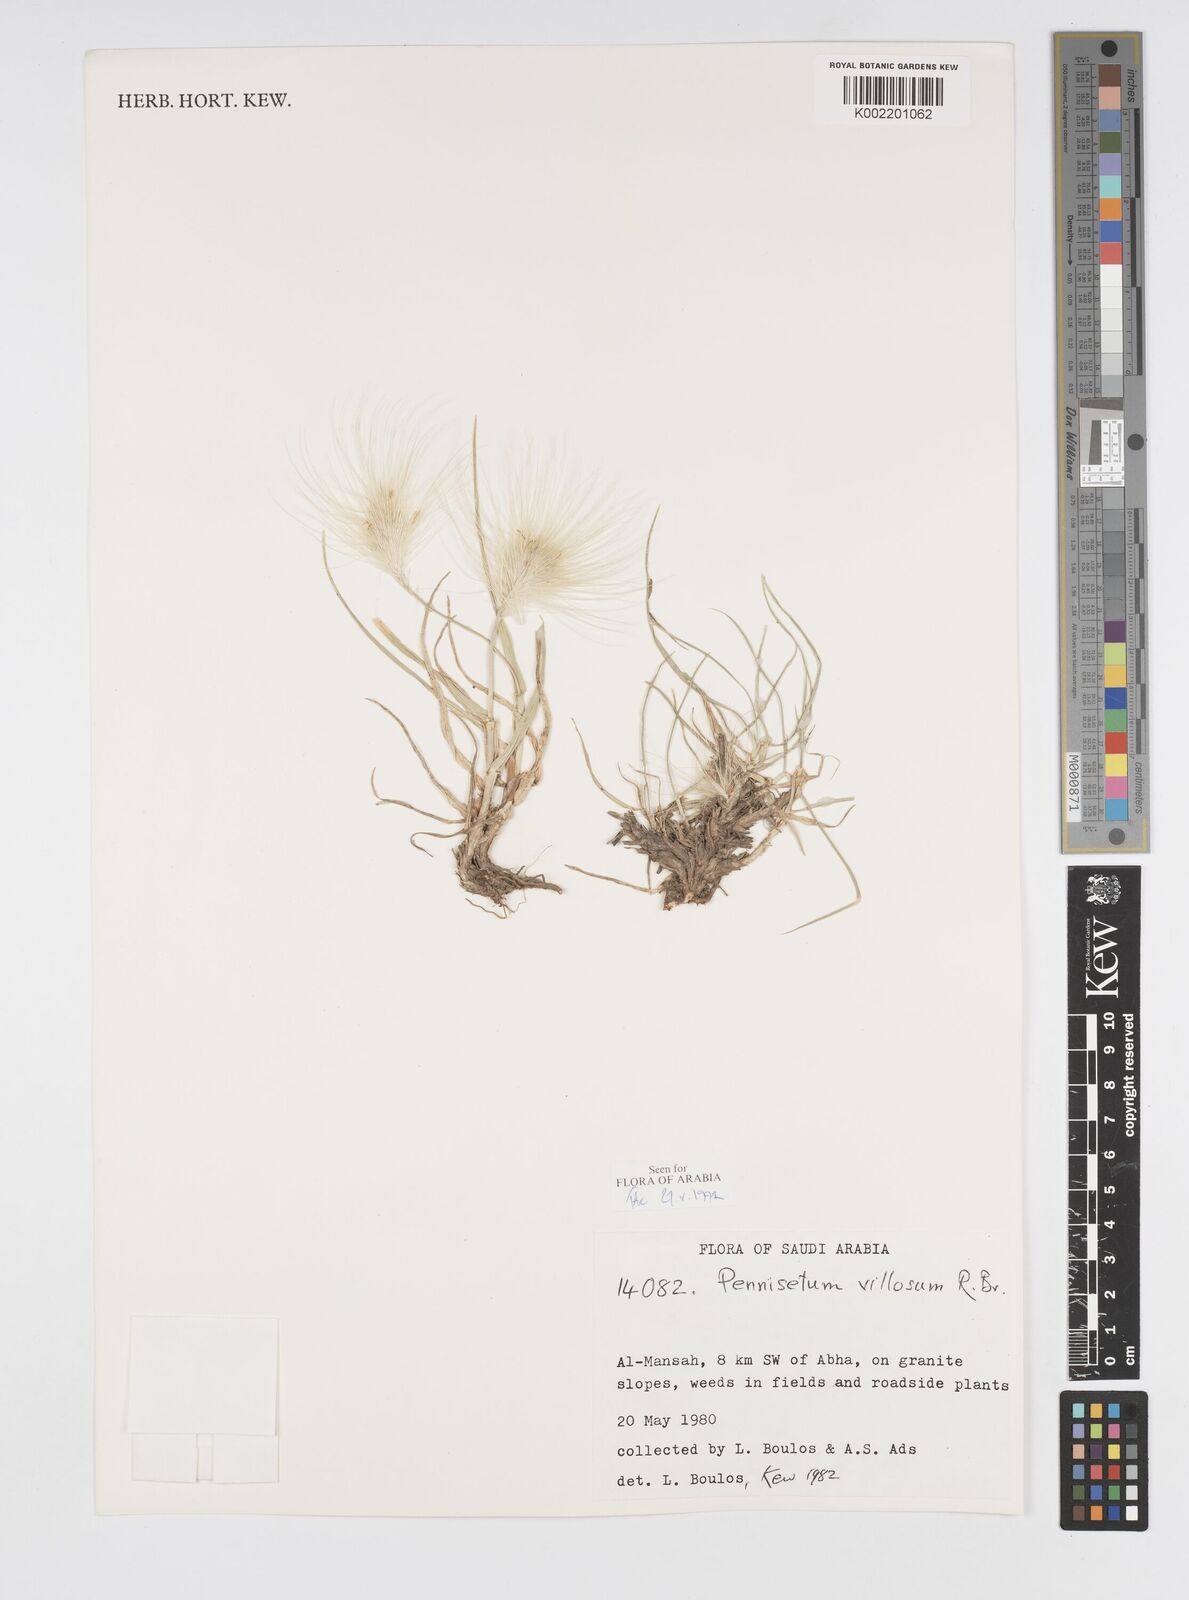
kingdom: Plantae
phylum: Tracheophyta
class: Liliopsida
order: Poales
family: Poaceae
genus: Cenchrus
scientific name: Cenchrus longisetus
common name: Feathertop
